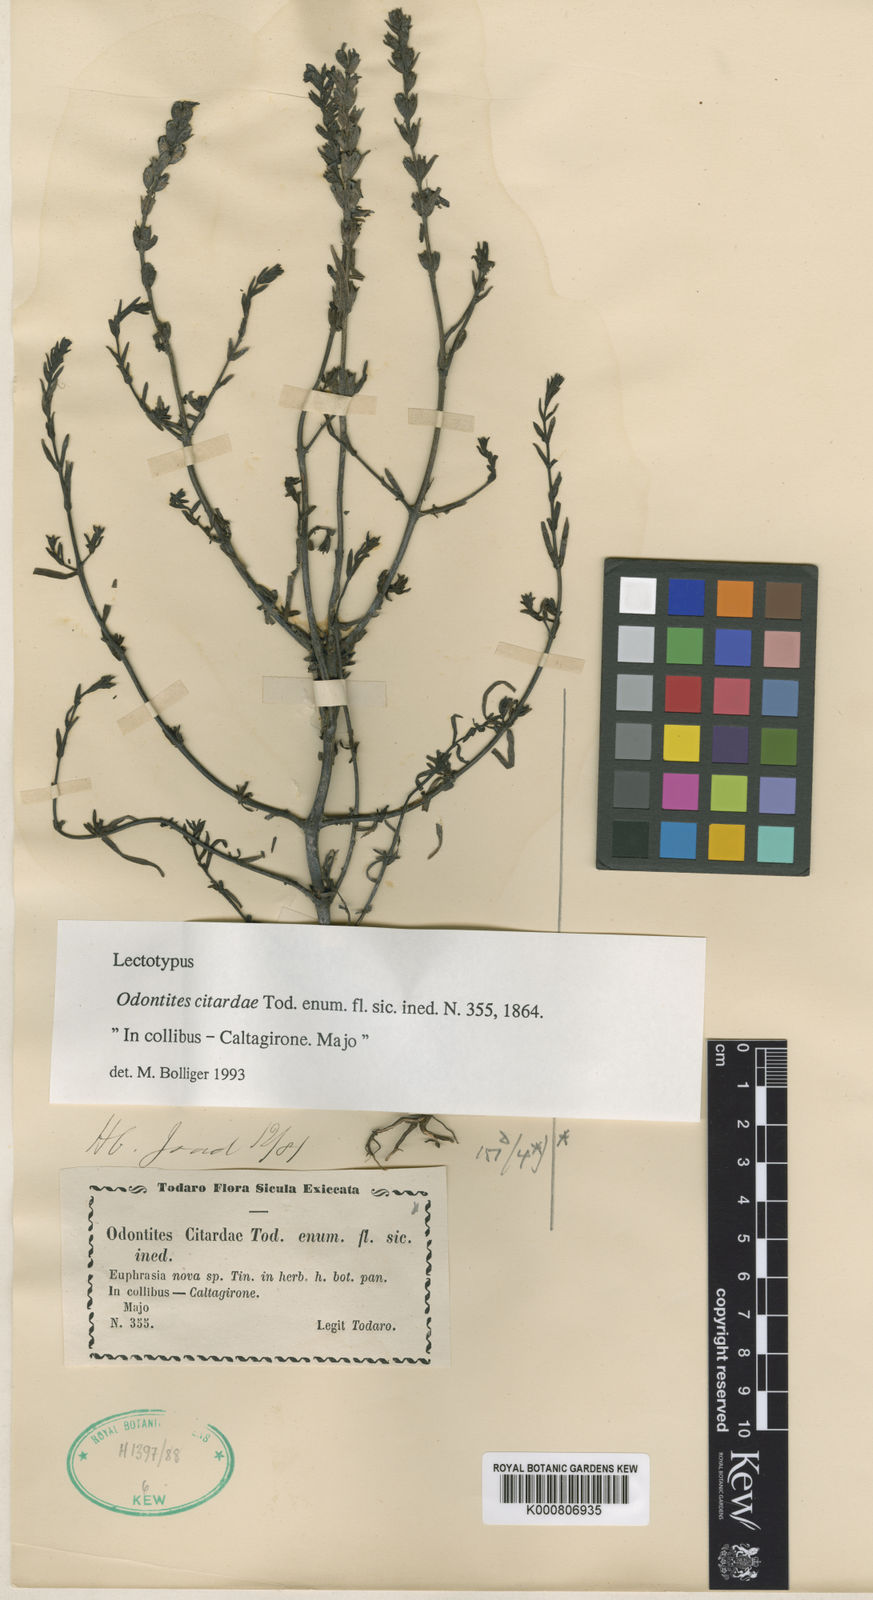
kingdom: Plantae
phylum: Tracheophyta
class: Magnoliopsida
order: Lamiales
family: Orobanchaceae
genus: Odontites
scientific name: Odontites rigidifolius
